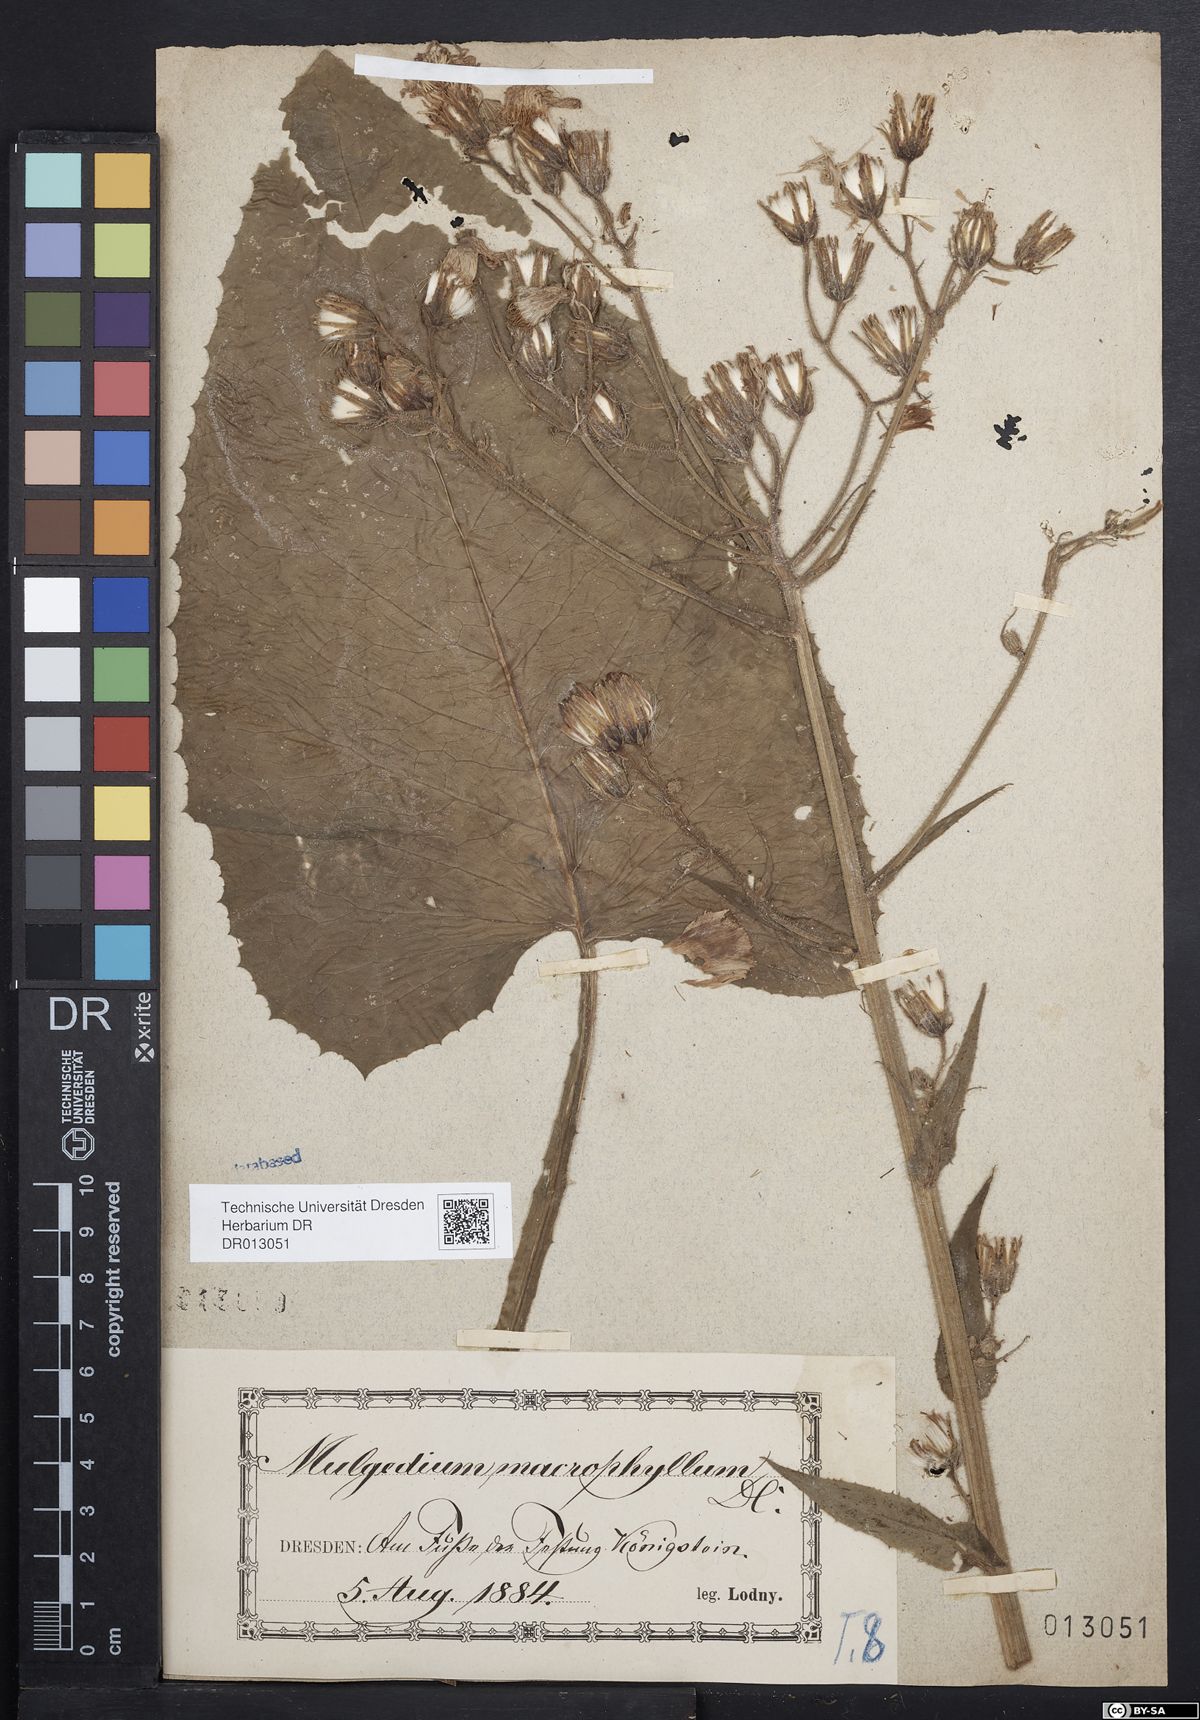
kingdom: Plantae
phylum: Tracheophyta
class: Magnoliopsida
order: Asterales
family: Asteraceae
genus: Lactuca
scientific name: Lactuca macrophylla
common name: Common blue-sow-thistle
